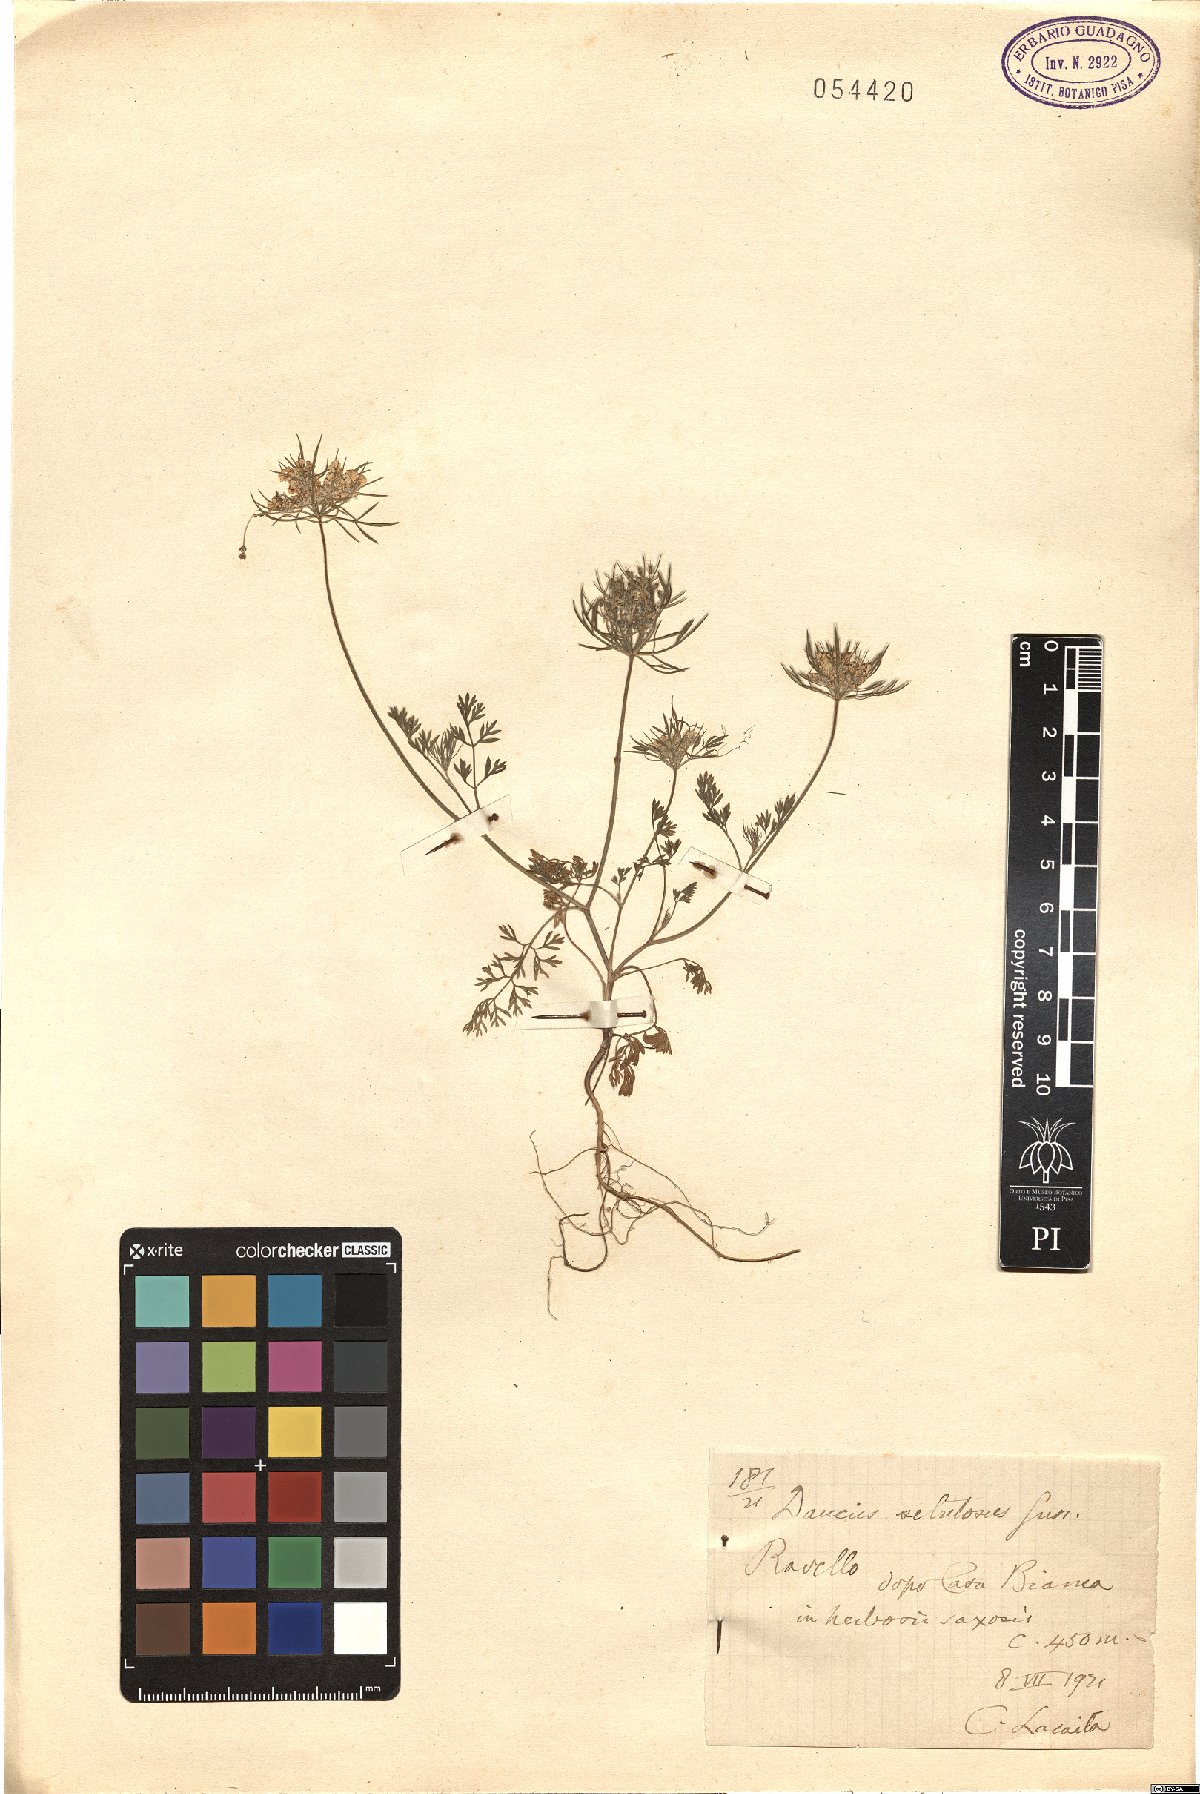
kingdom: Plantae
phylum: Tracheophyta
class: Magnoliopsida
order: Apiales
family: Apiaceae
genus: Daucus
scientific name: Daucus guttatus
